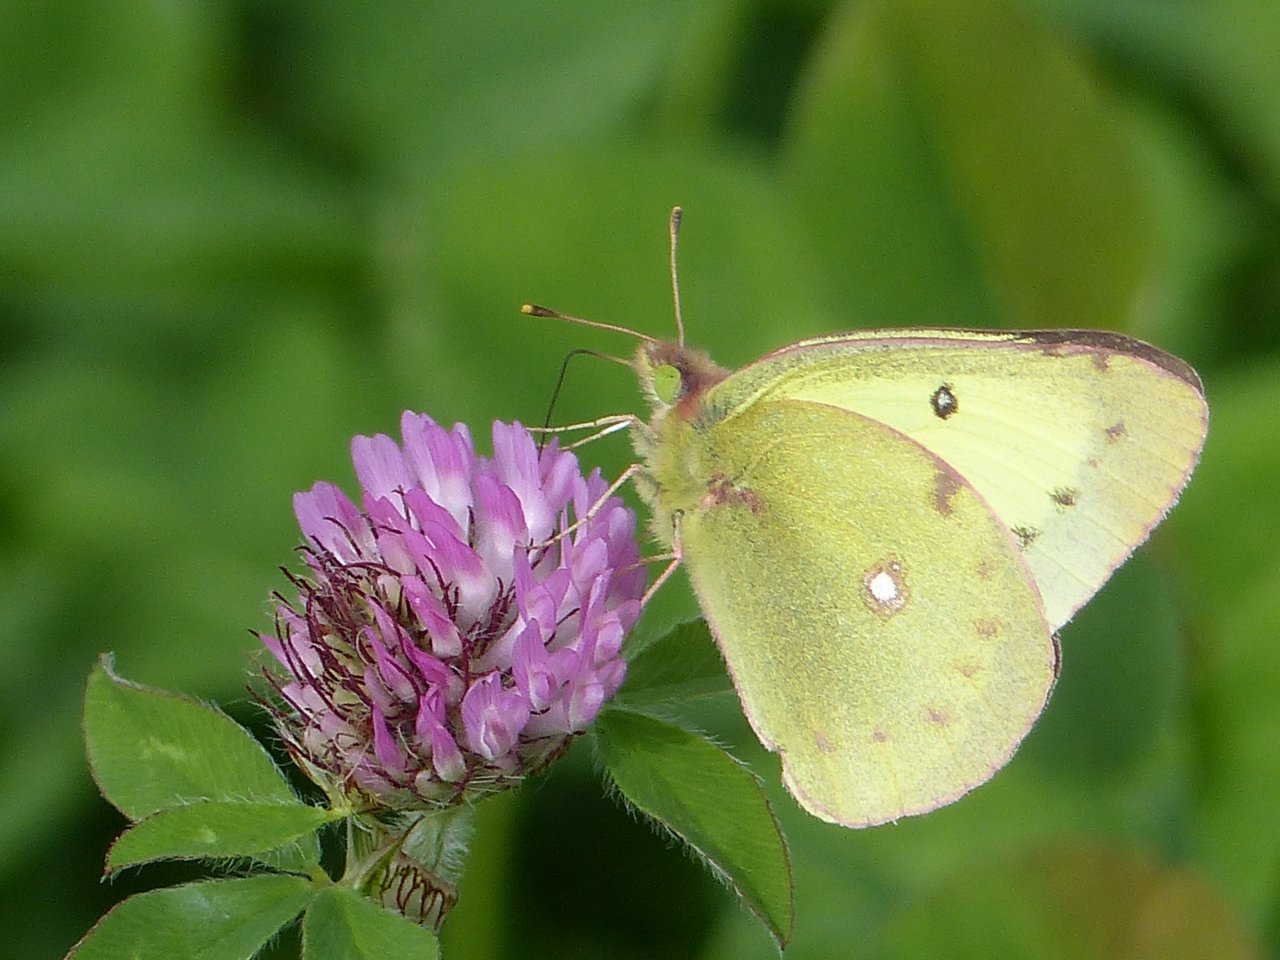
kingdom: Animalia
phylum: Arthropoda
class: Insecta
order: Lepidoptera
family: Pieridae
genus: Colias
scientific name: Colias philodice
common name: Clouded Sulphur
